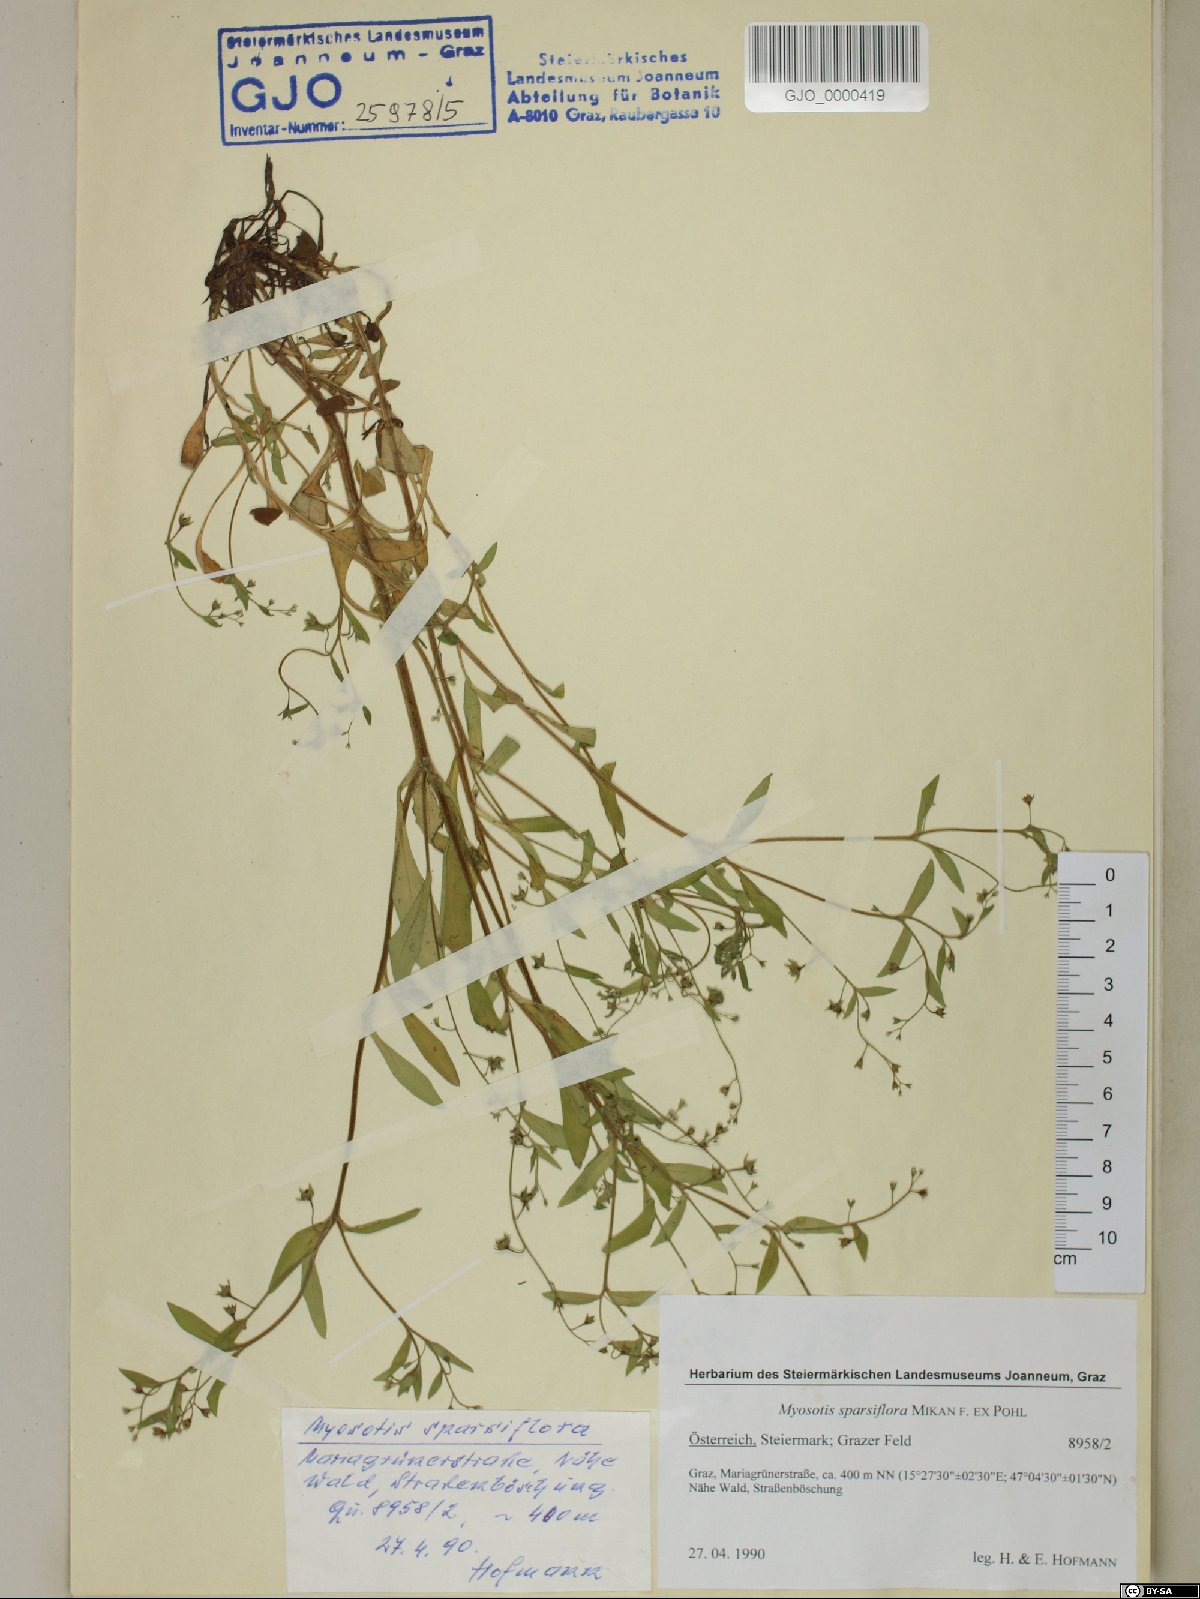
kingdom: Plantae
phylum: Tracheophyta
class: Magnoliopsida
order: Boraginales
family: Boraginaceae
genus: Myosotis
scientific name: Myosotis sparsiflora
